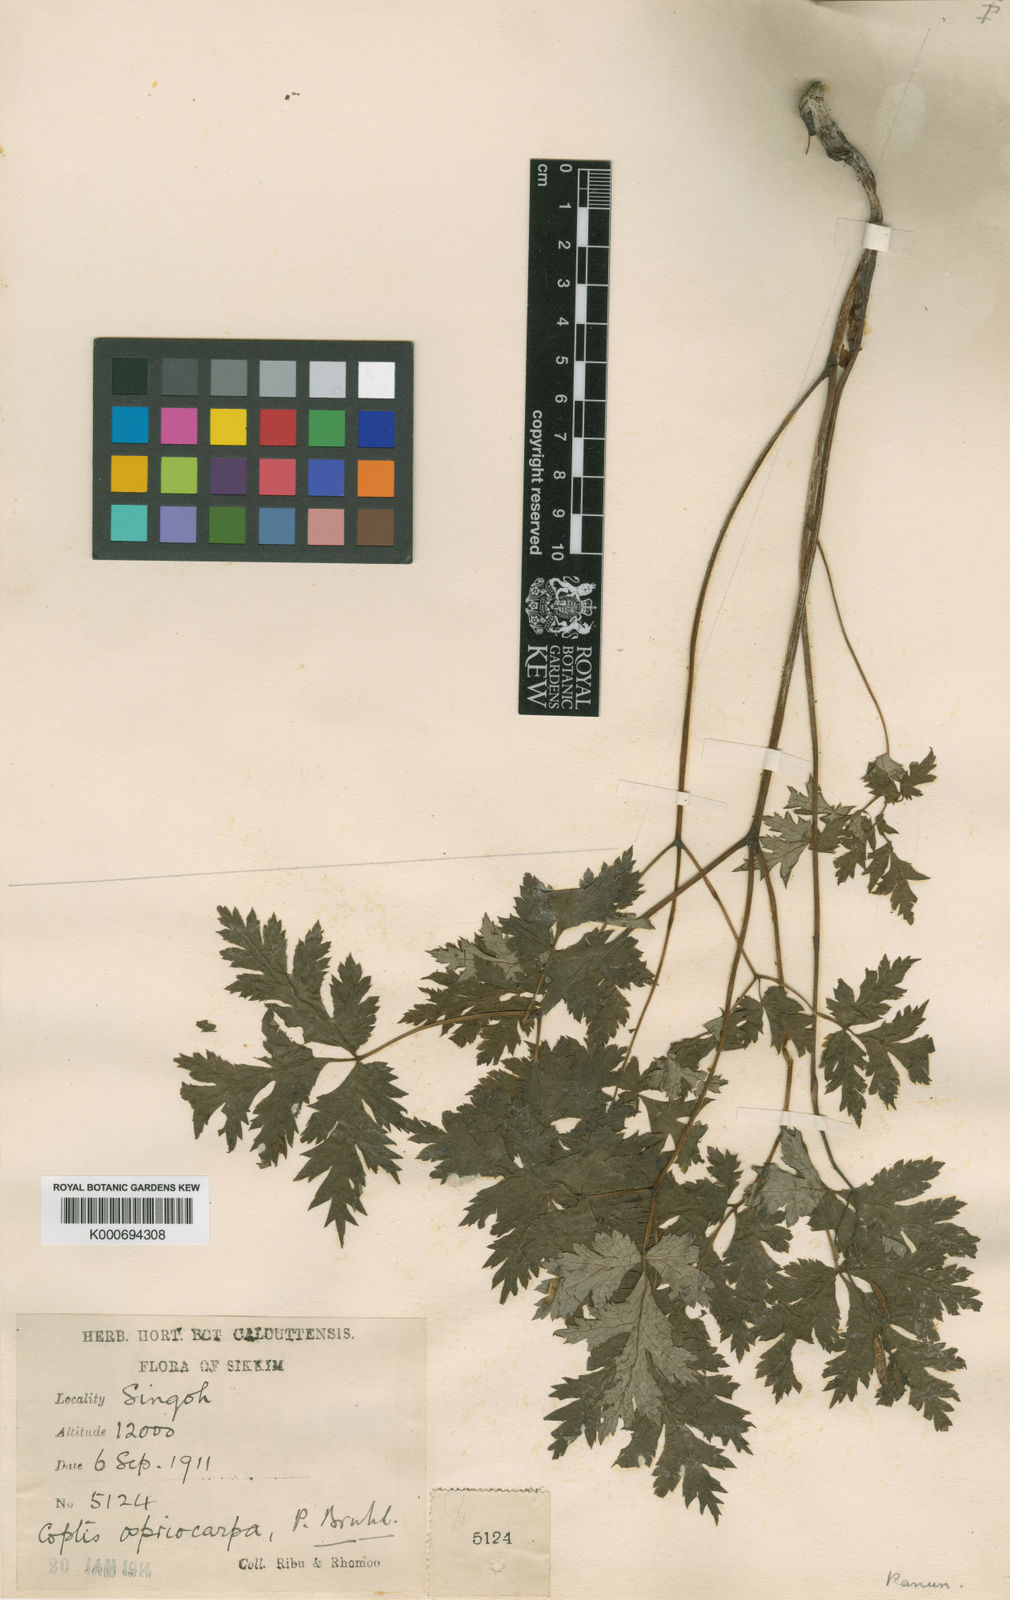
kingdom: Plantae
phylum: Tracheophyta
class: Magnoliopsida
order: Ranunculales
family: Ranunculaceae
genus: Actaea
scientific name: Actaea vaginata
